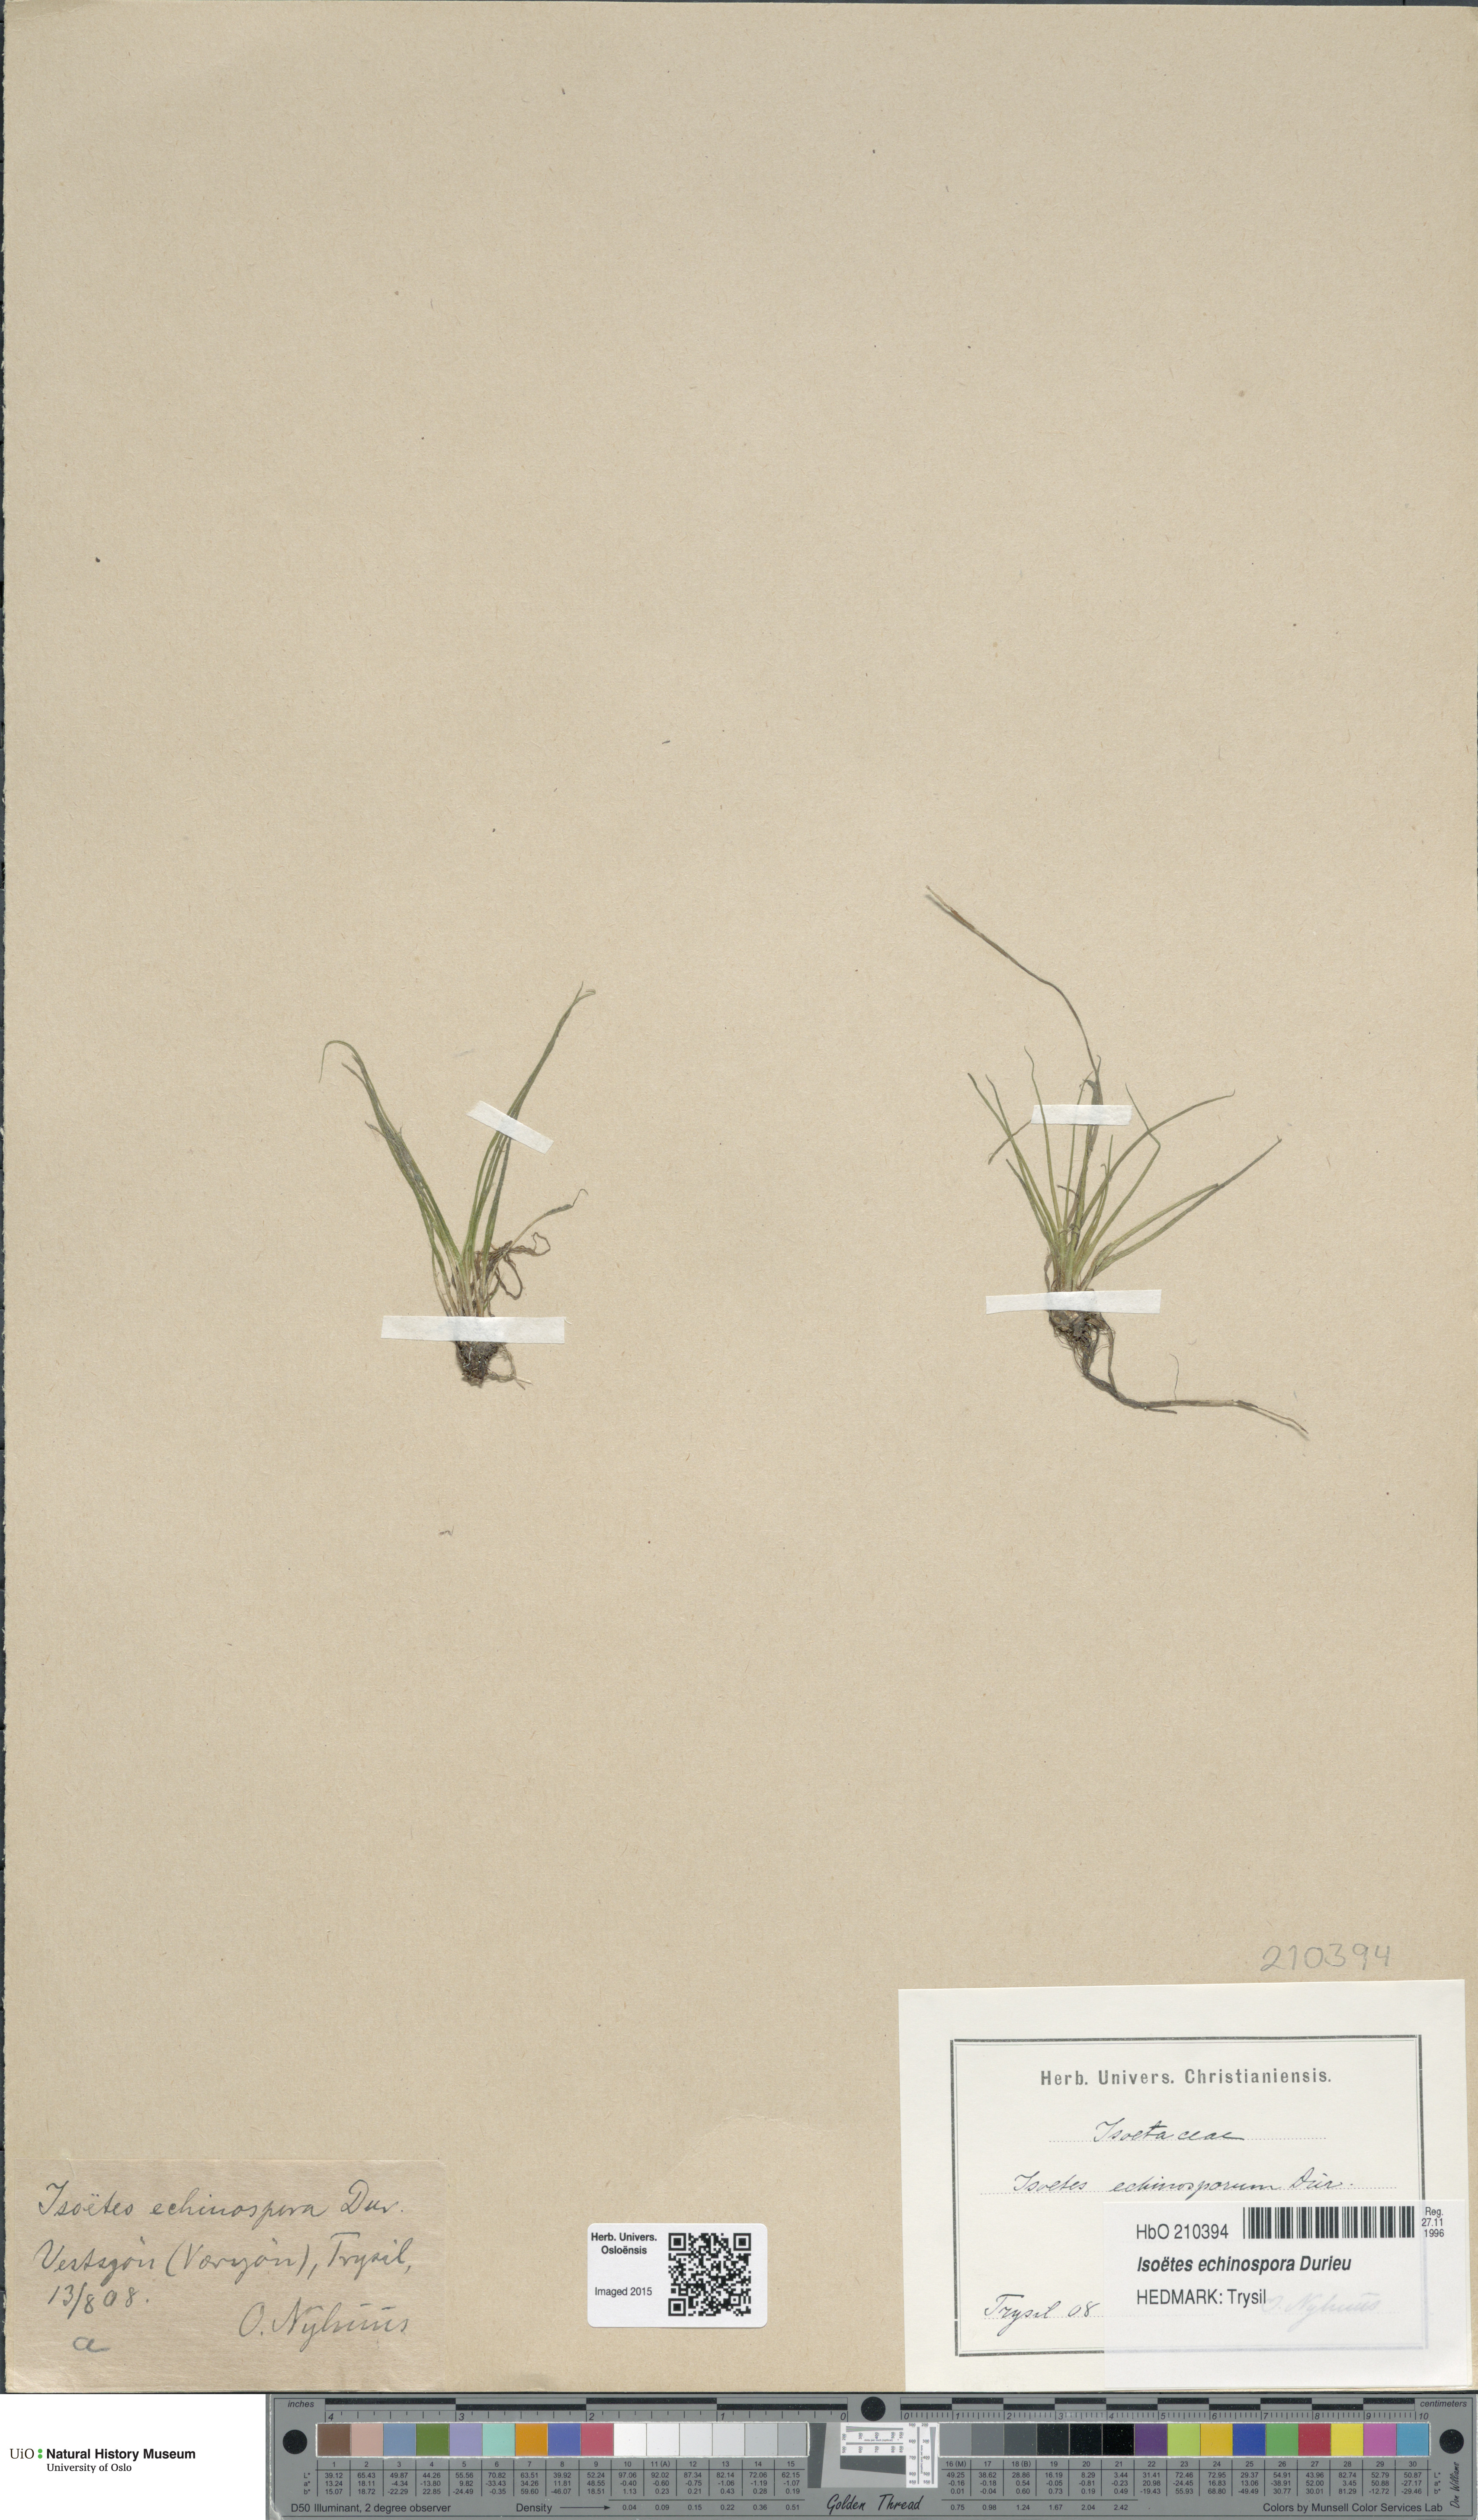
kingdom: Plantae
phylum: Tracheophyta
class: Lycopodiopsida
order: Isoetales
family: Isoetaceae
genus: Isoetes
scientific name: Isoetes echinospora
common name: Spring quillwort
